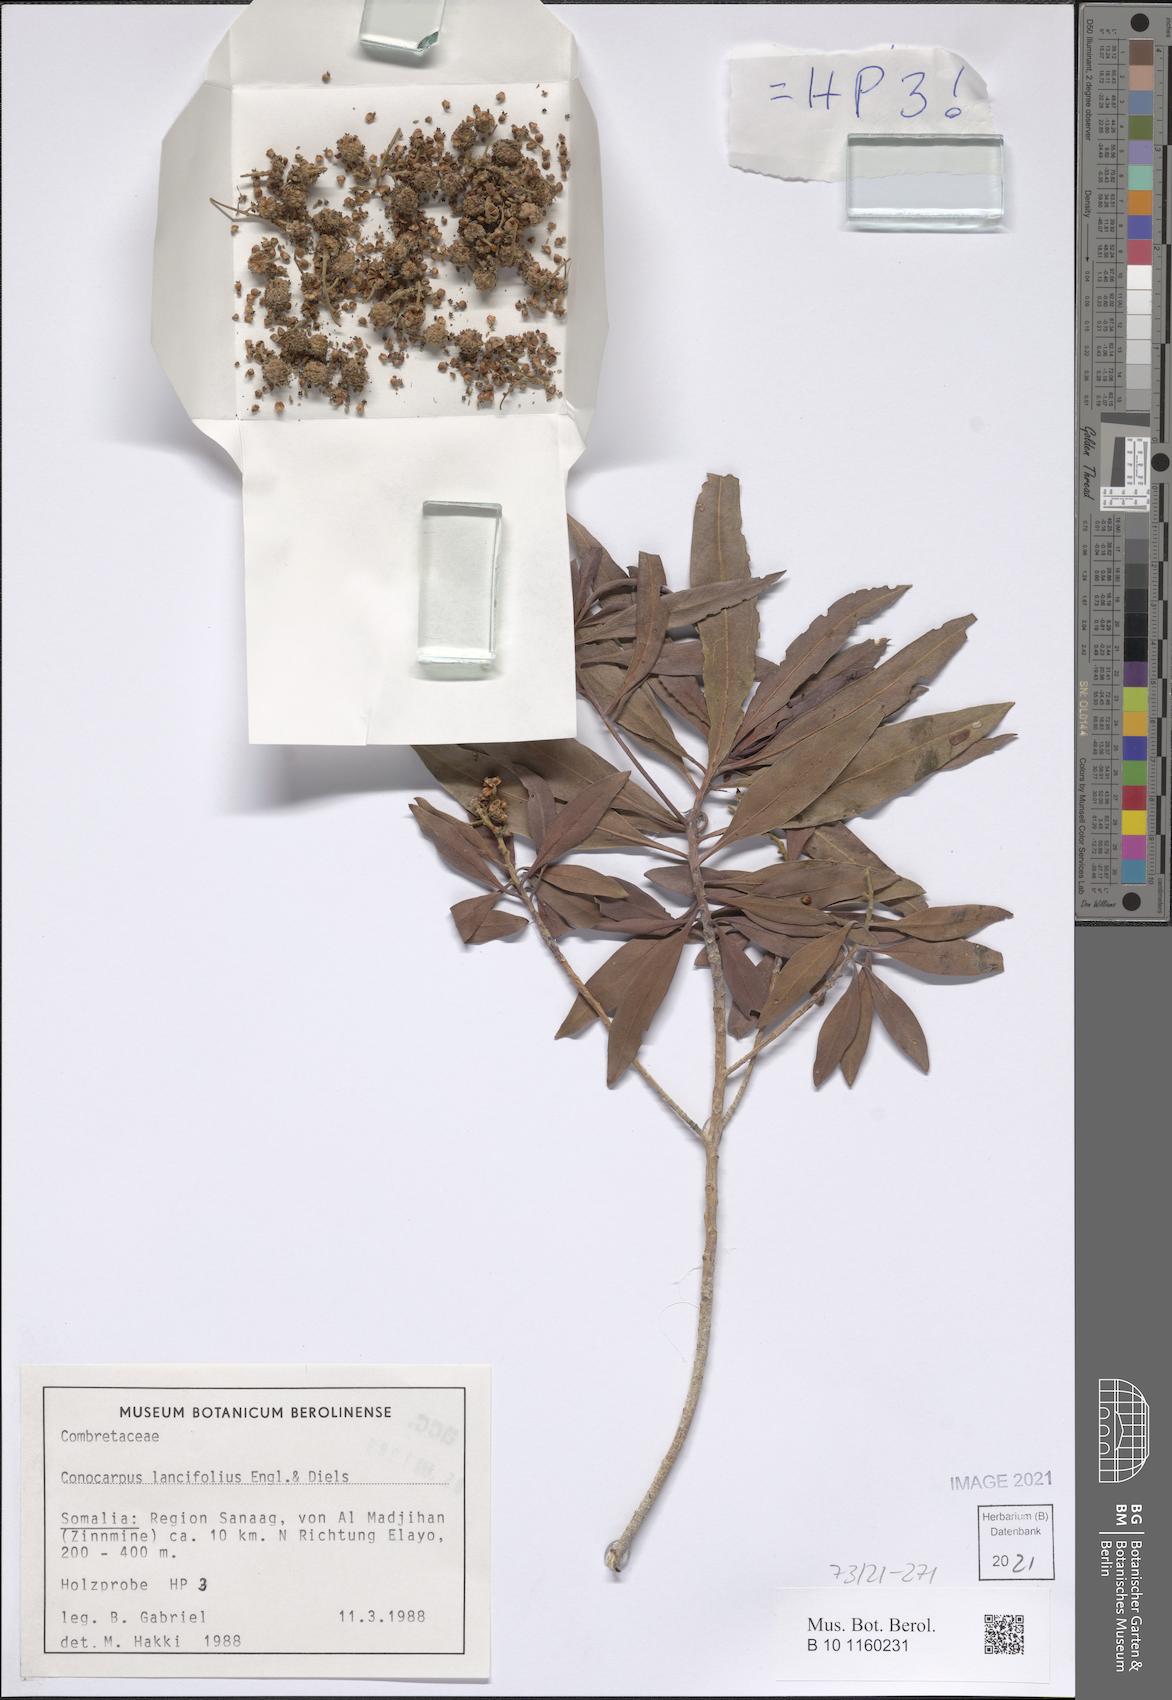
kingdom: Plantae
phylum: Tracheophyta
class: Magnoliopsida
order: Myrtales
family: Combretaceae
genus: Conocarpus
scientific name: Conocarpus lancifolius
